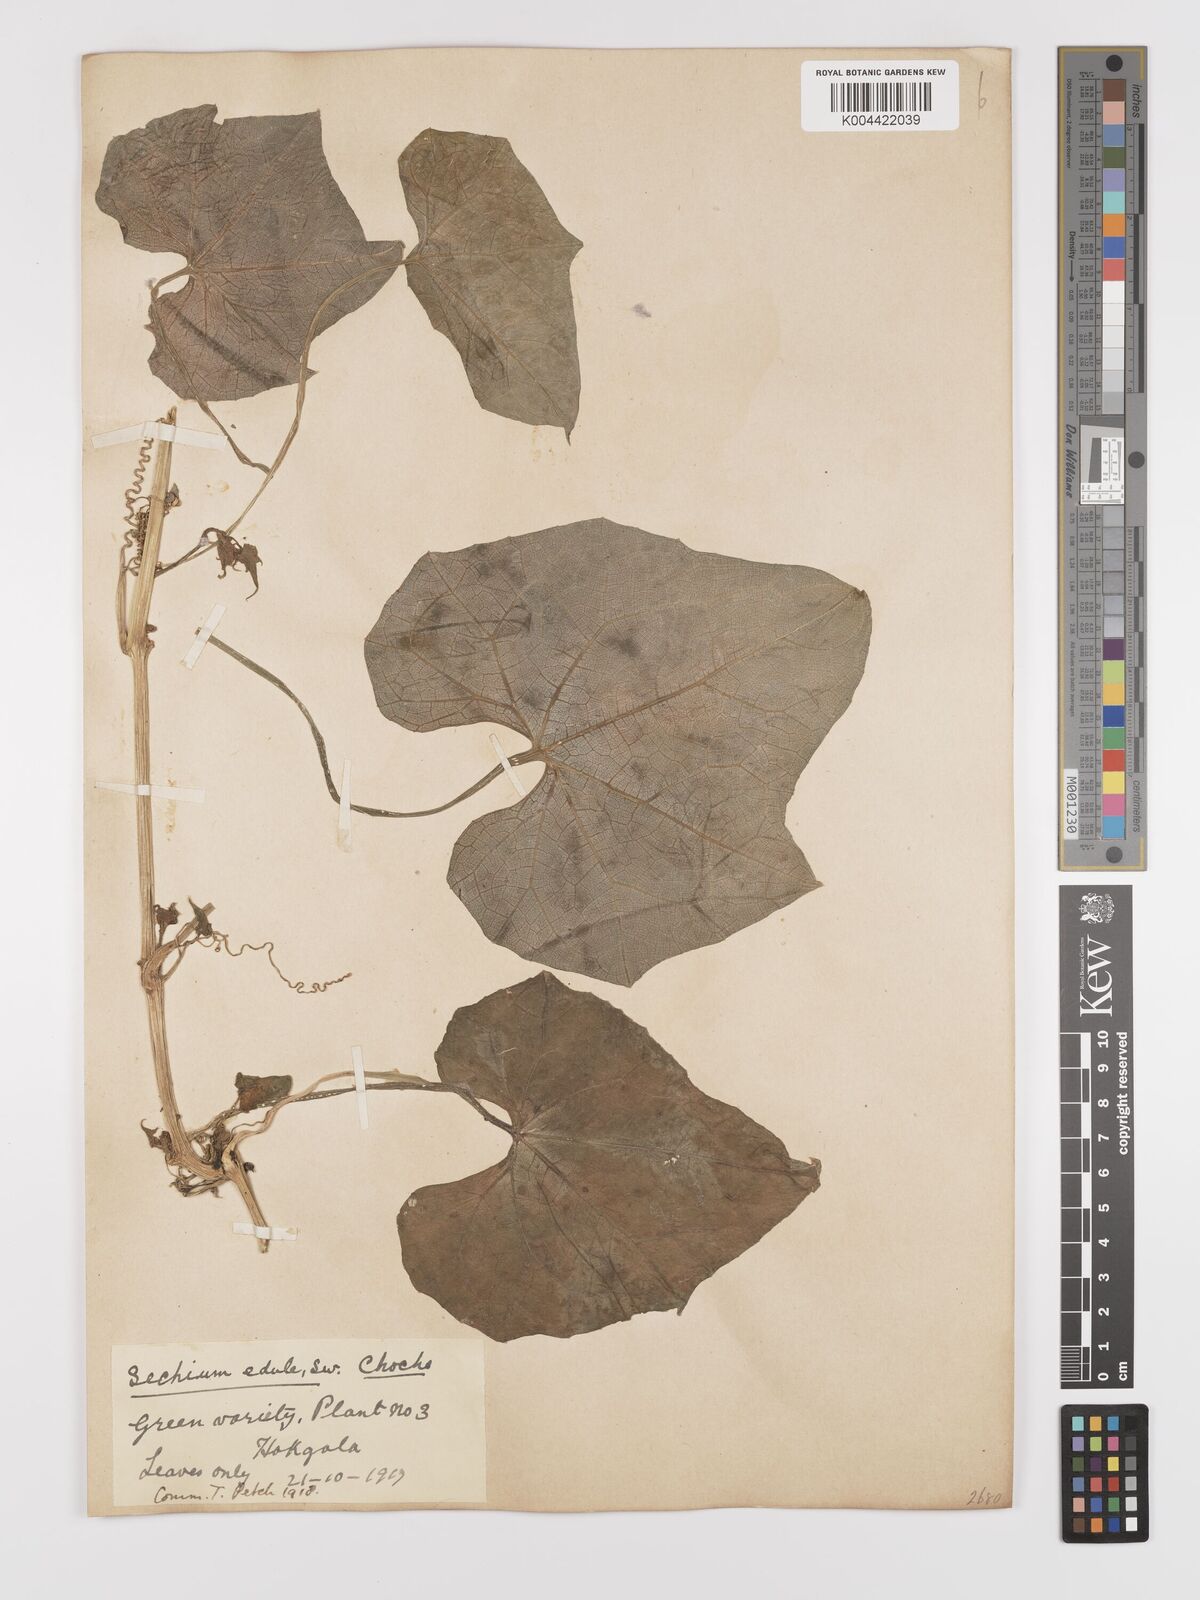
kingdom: Plantae
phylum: Tracheophyta
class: Magnoliopsida
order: Cucurbitales
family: Cucurbitaceae
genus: Sechium
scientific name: Sechium edule
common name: Chayote
